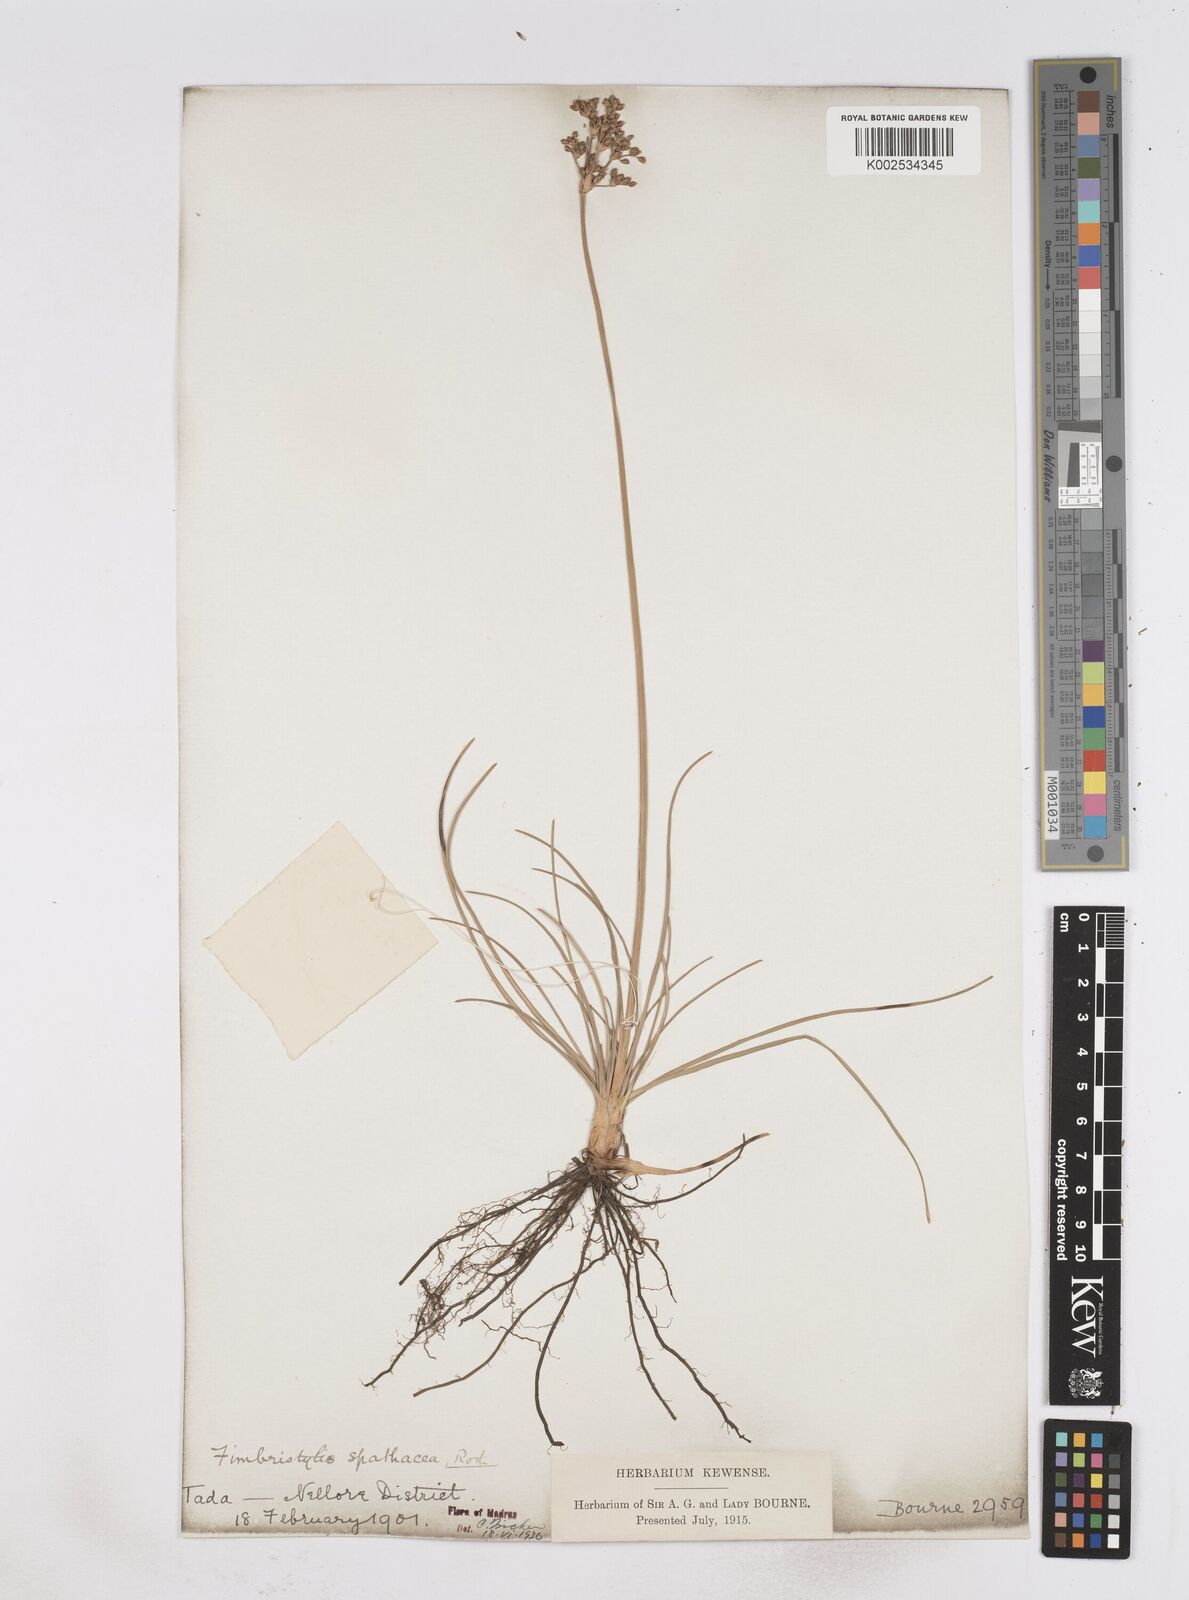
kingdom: Plantae
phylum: Tracheophyta
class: Liliopsida
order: Poales
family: Cyperaceae
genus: Fimbristylis
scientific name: Fimbristylis cymosa
